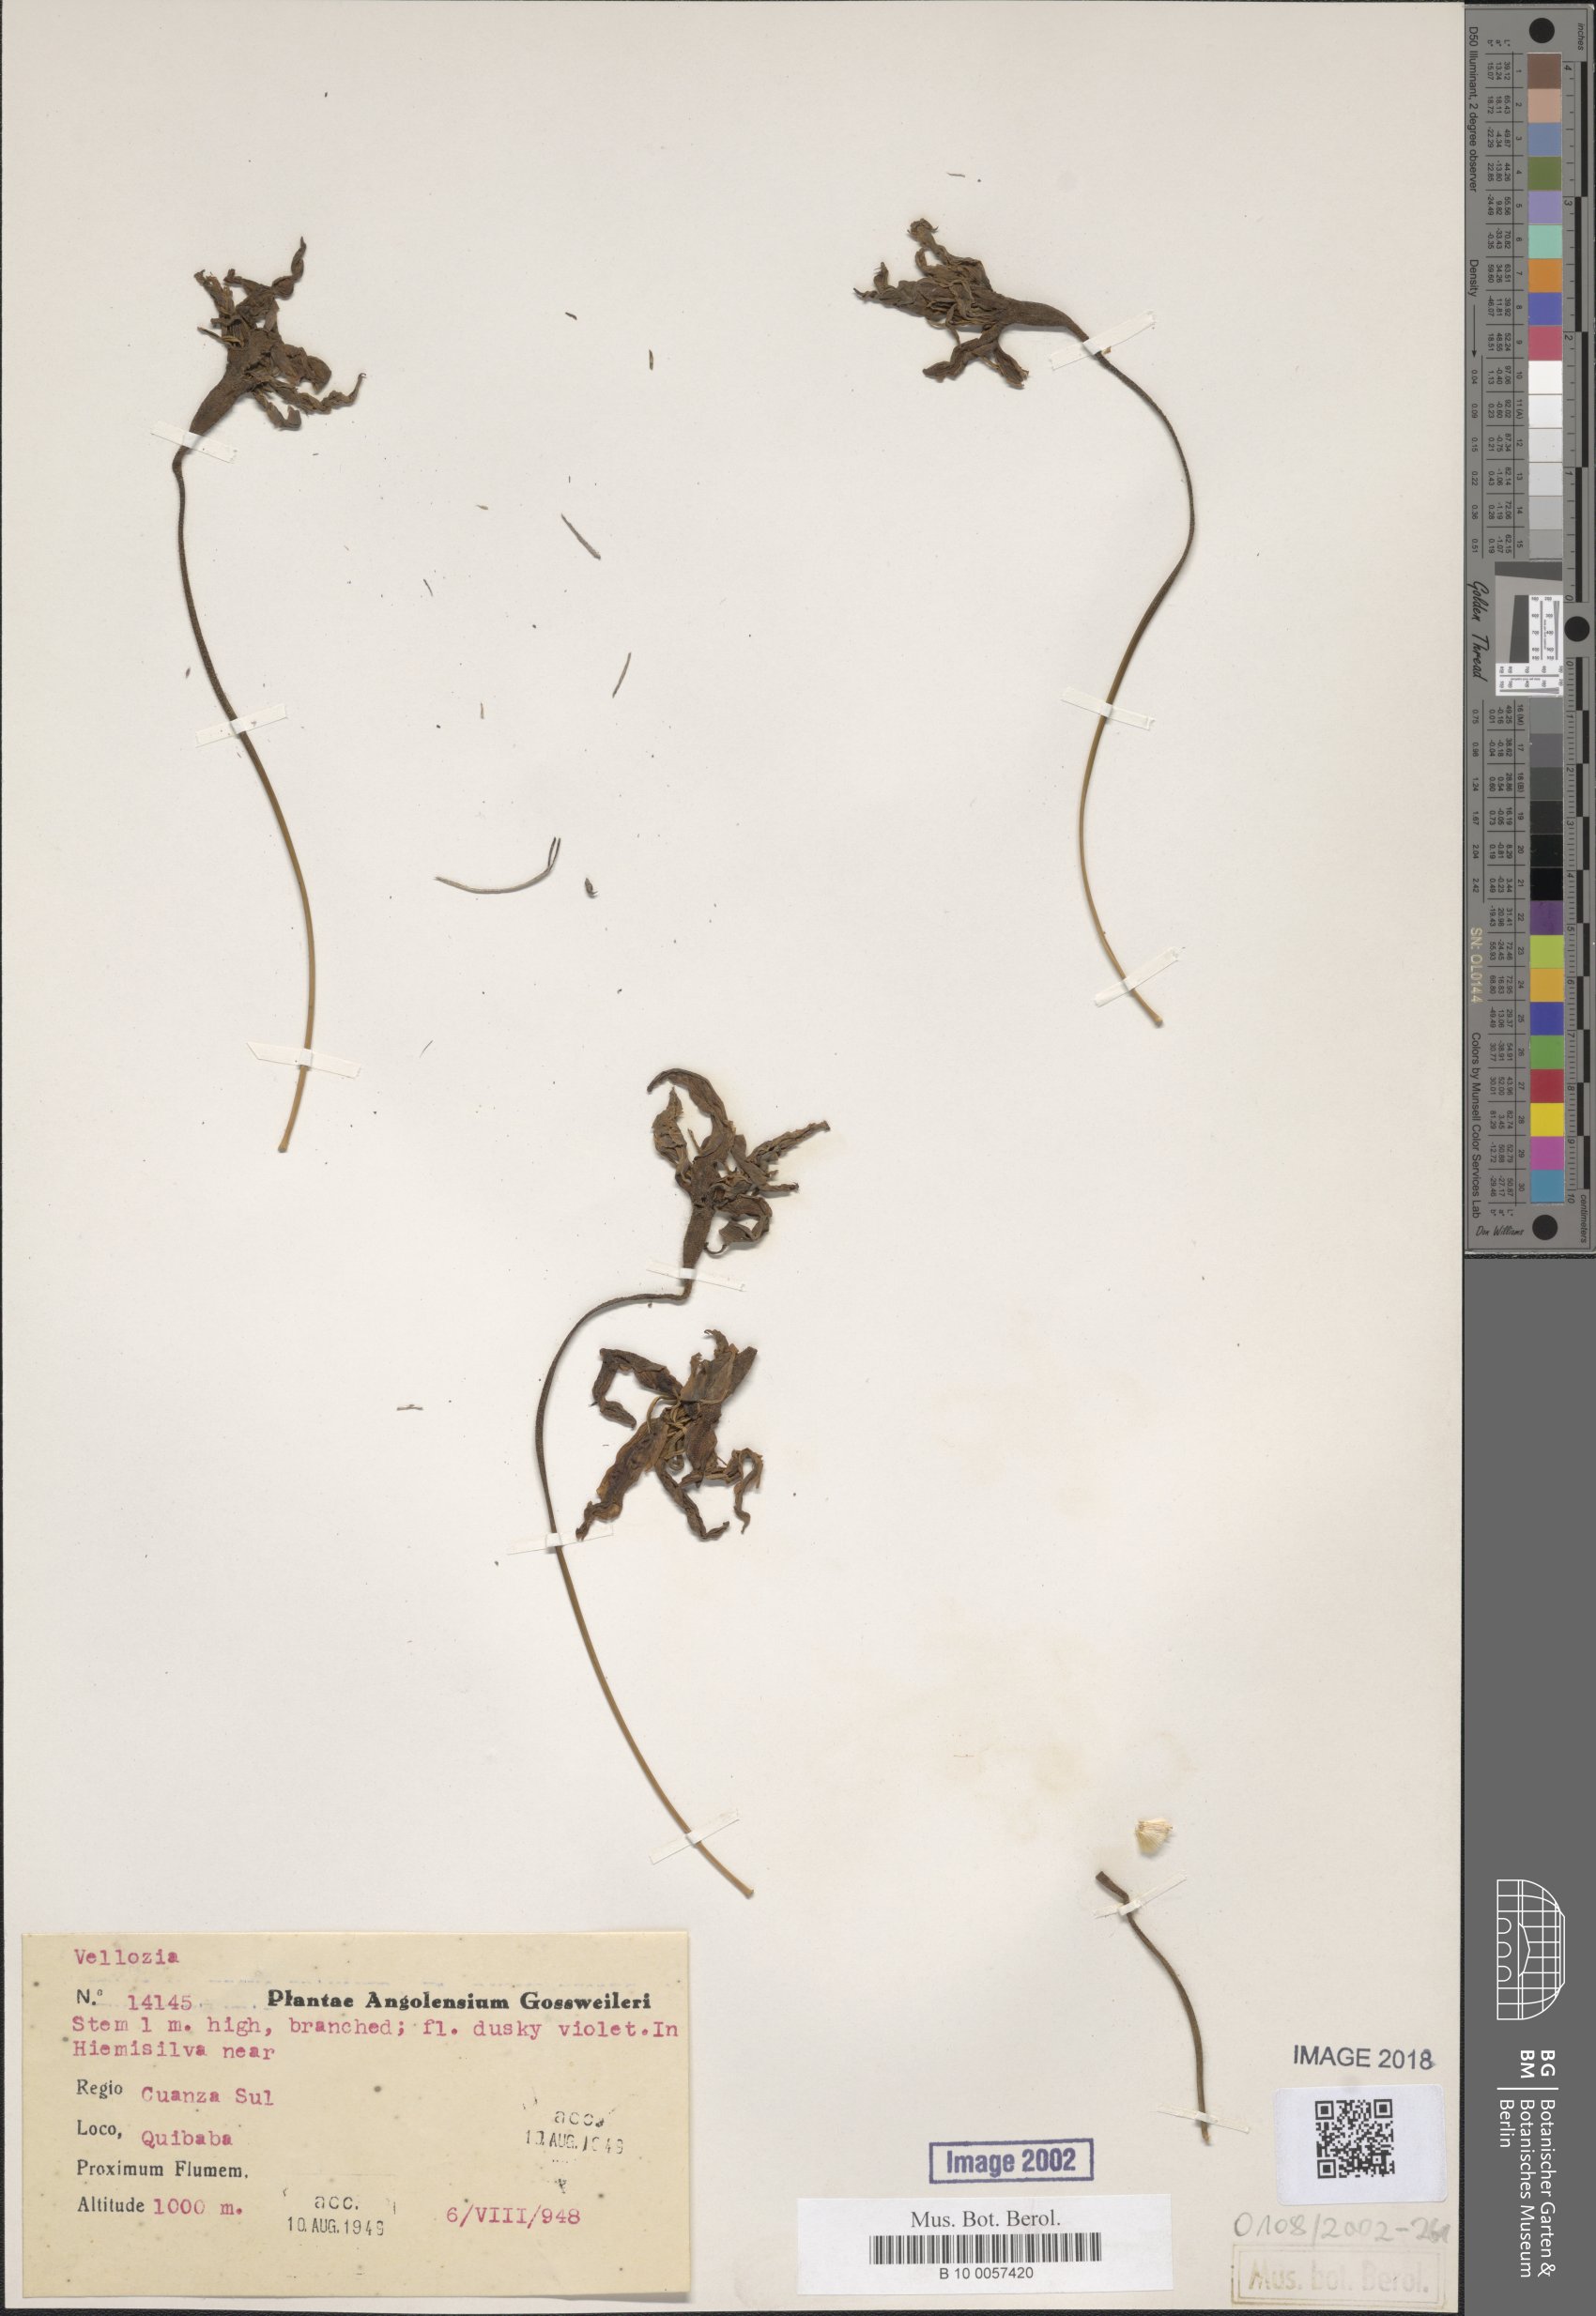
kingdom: Plantae
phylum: Tracheophyta
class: Liliopsida
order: Pandanales
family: Velloziaceae
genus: Xerophyta
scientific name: Xerophyta
